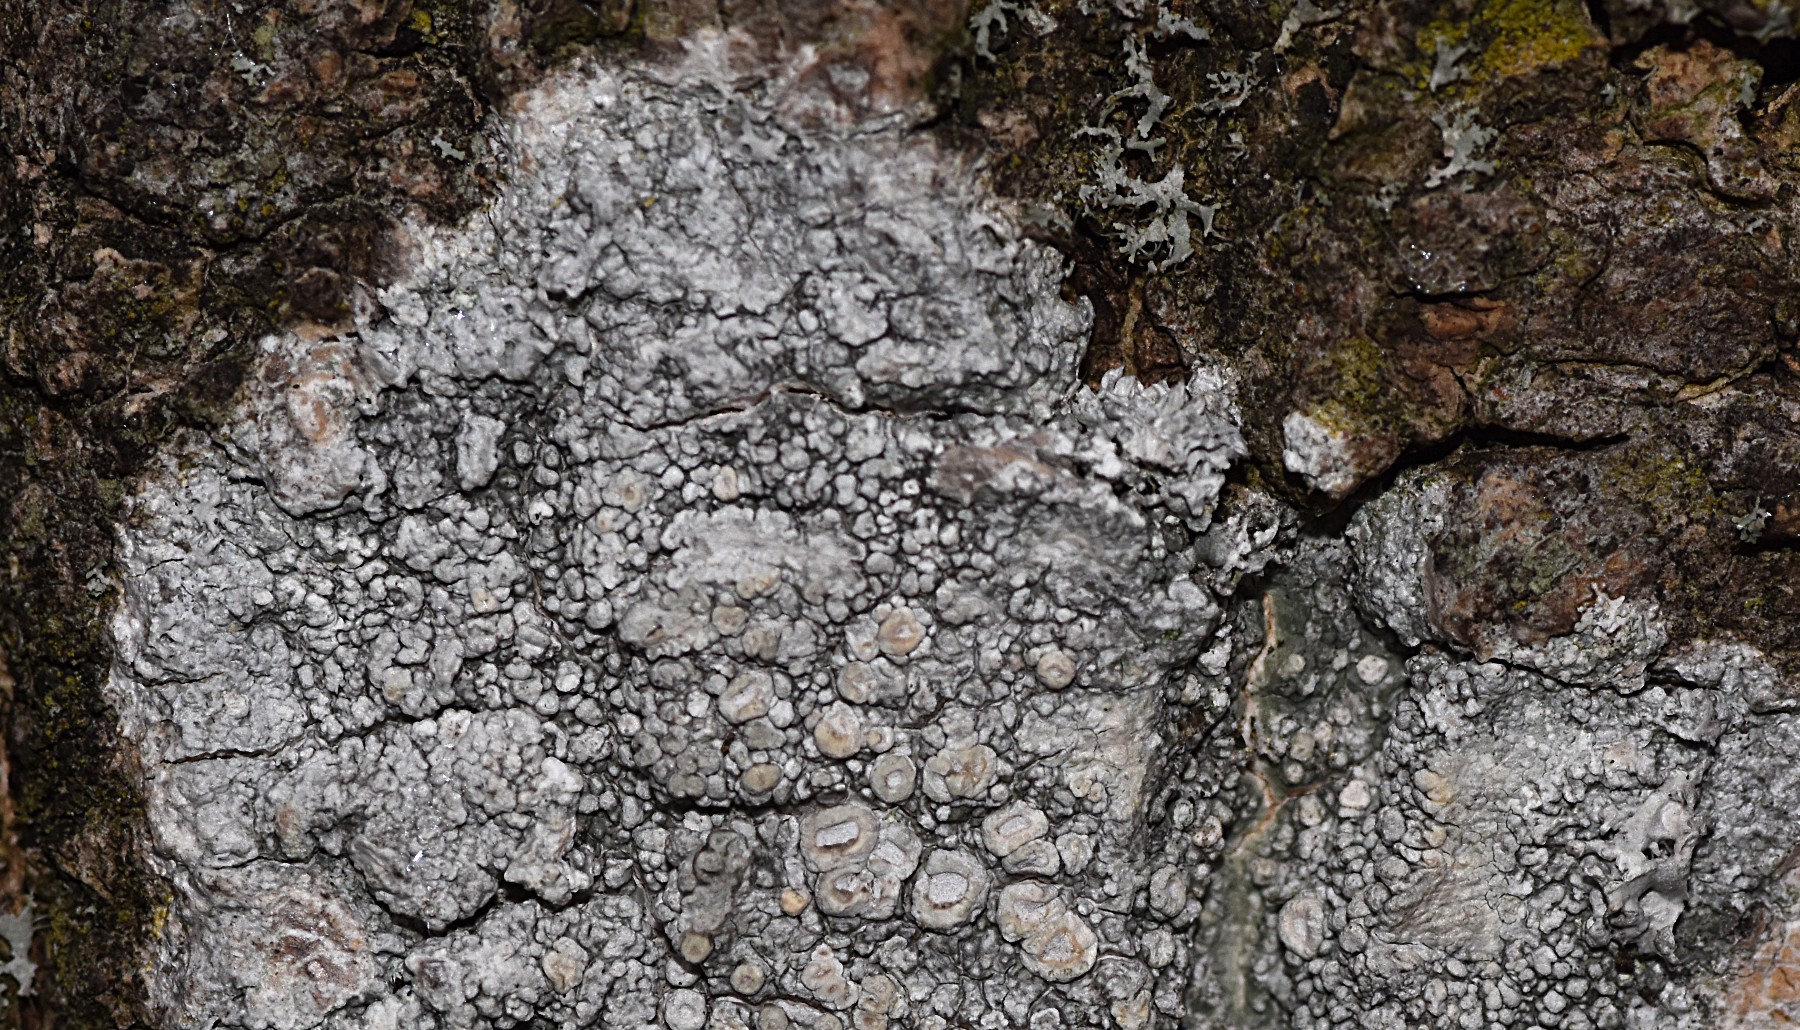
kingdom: Fungi
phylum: Ascomycota
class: Lecanoromycetes
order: Pertusariales
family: Ochrolechiaceae
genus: Ochrolechia
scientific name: Ochrolechia parella
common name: almindelig blegskivelav
